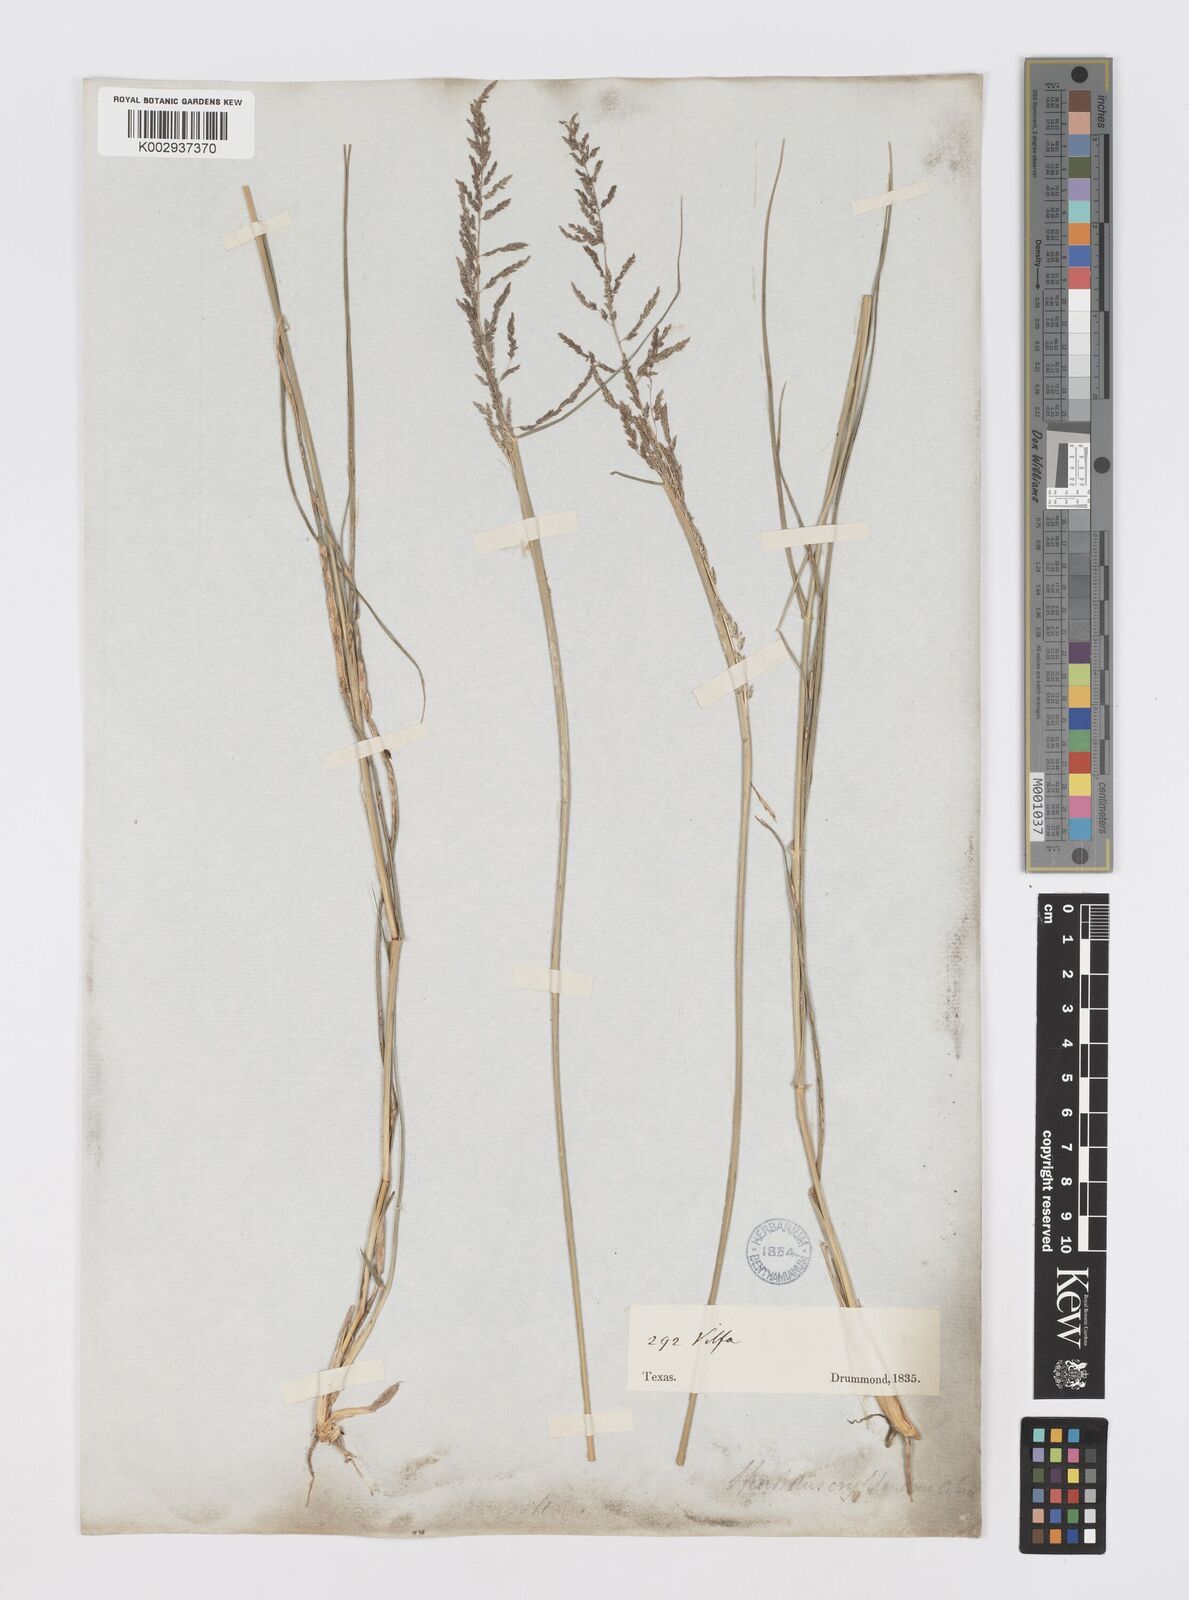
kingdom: Plantae
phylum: Tracheophyta
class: Liliopsida
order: Poales
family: Poaceae
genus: Sporobolus
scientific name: Sporobolus cryptandrus
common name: Sand dropseed
